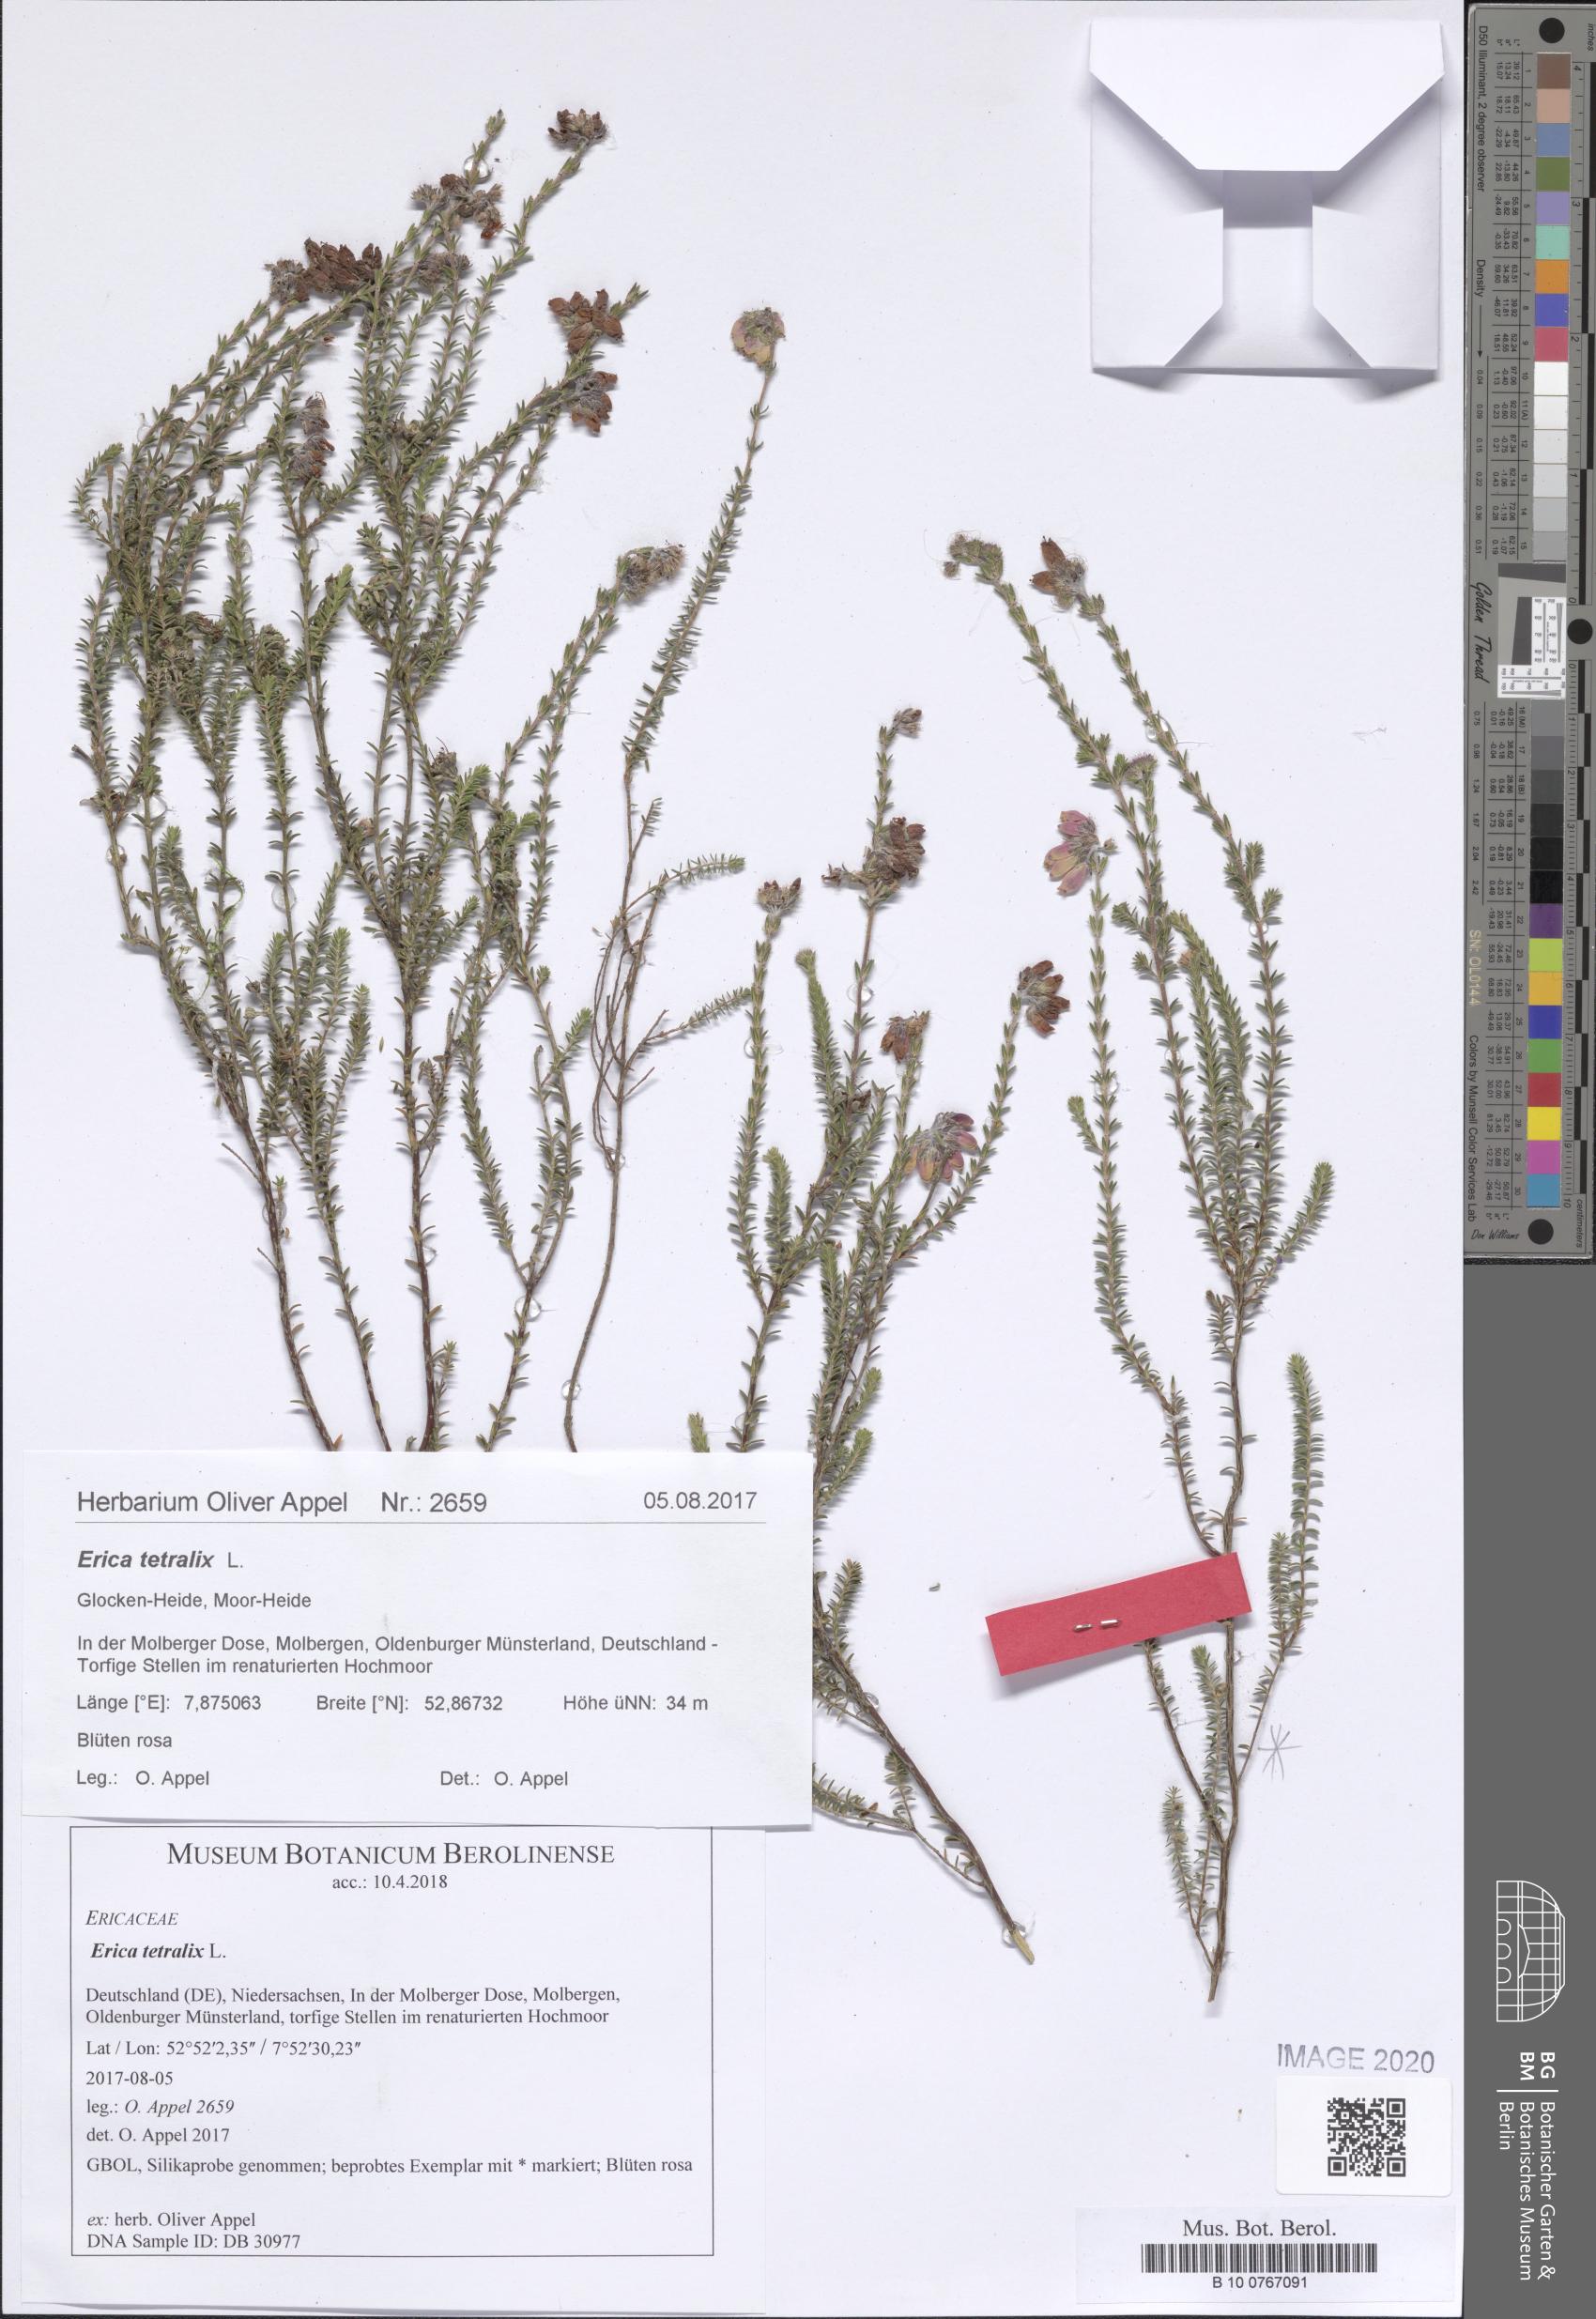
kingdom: Plantae
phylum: Tracheophyta
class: Magnoliopsida
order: Ericales
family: Ericaceae
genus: Erica
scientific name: Erica tetralix
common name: Cross-leaved heath
